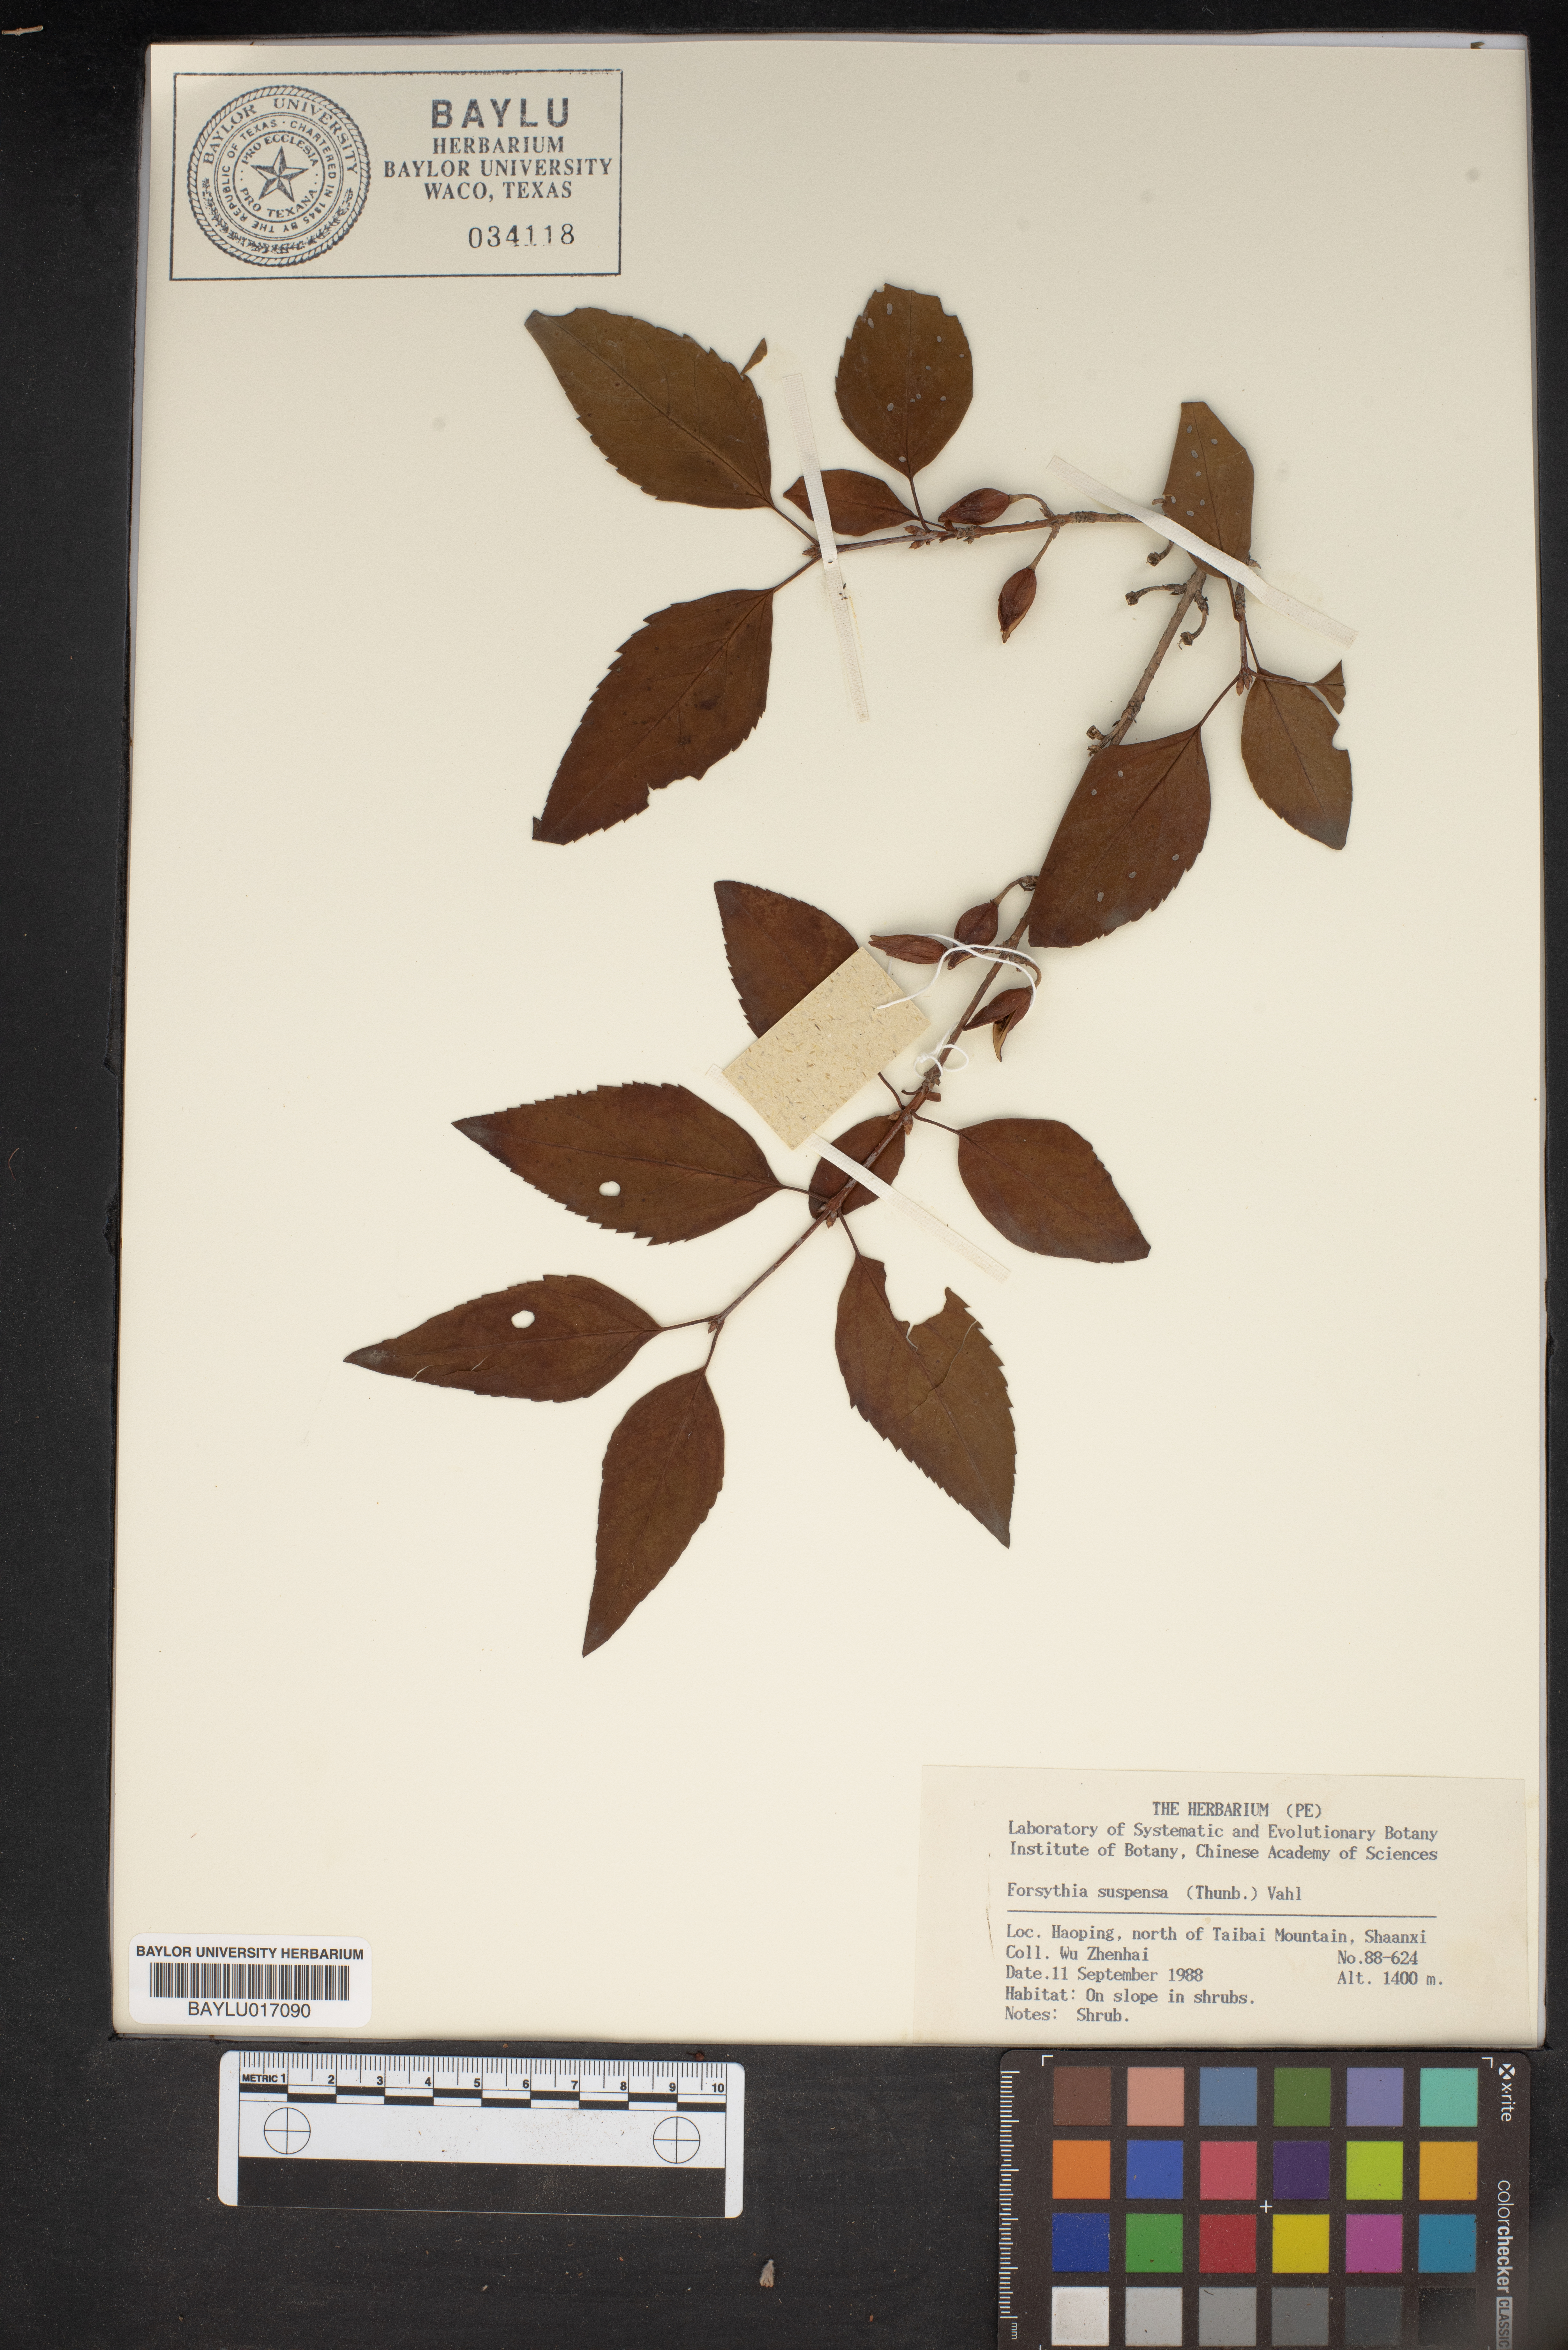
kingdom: Plantae
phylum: Tracheophyta
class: Magnoliopsida
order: Lamiales
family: Oleaceae
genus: Forsythia
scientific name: Forsythia suspensa
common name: Weeping forsythia
